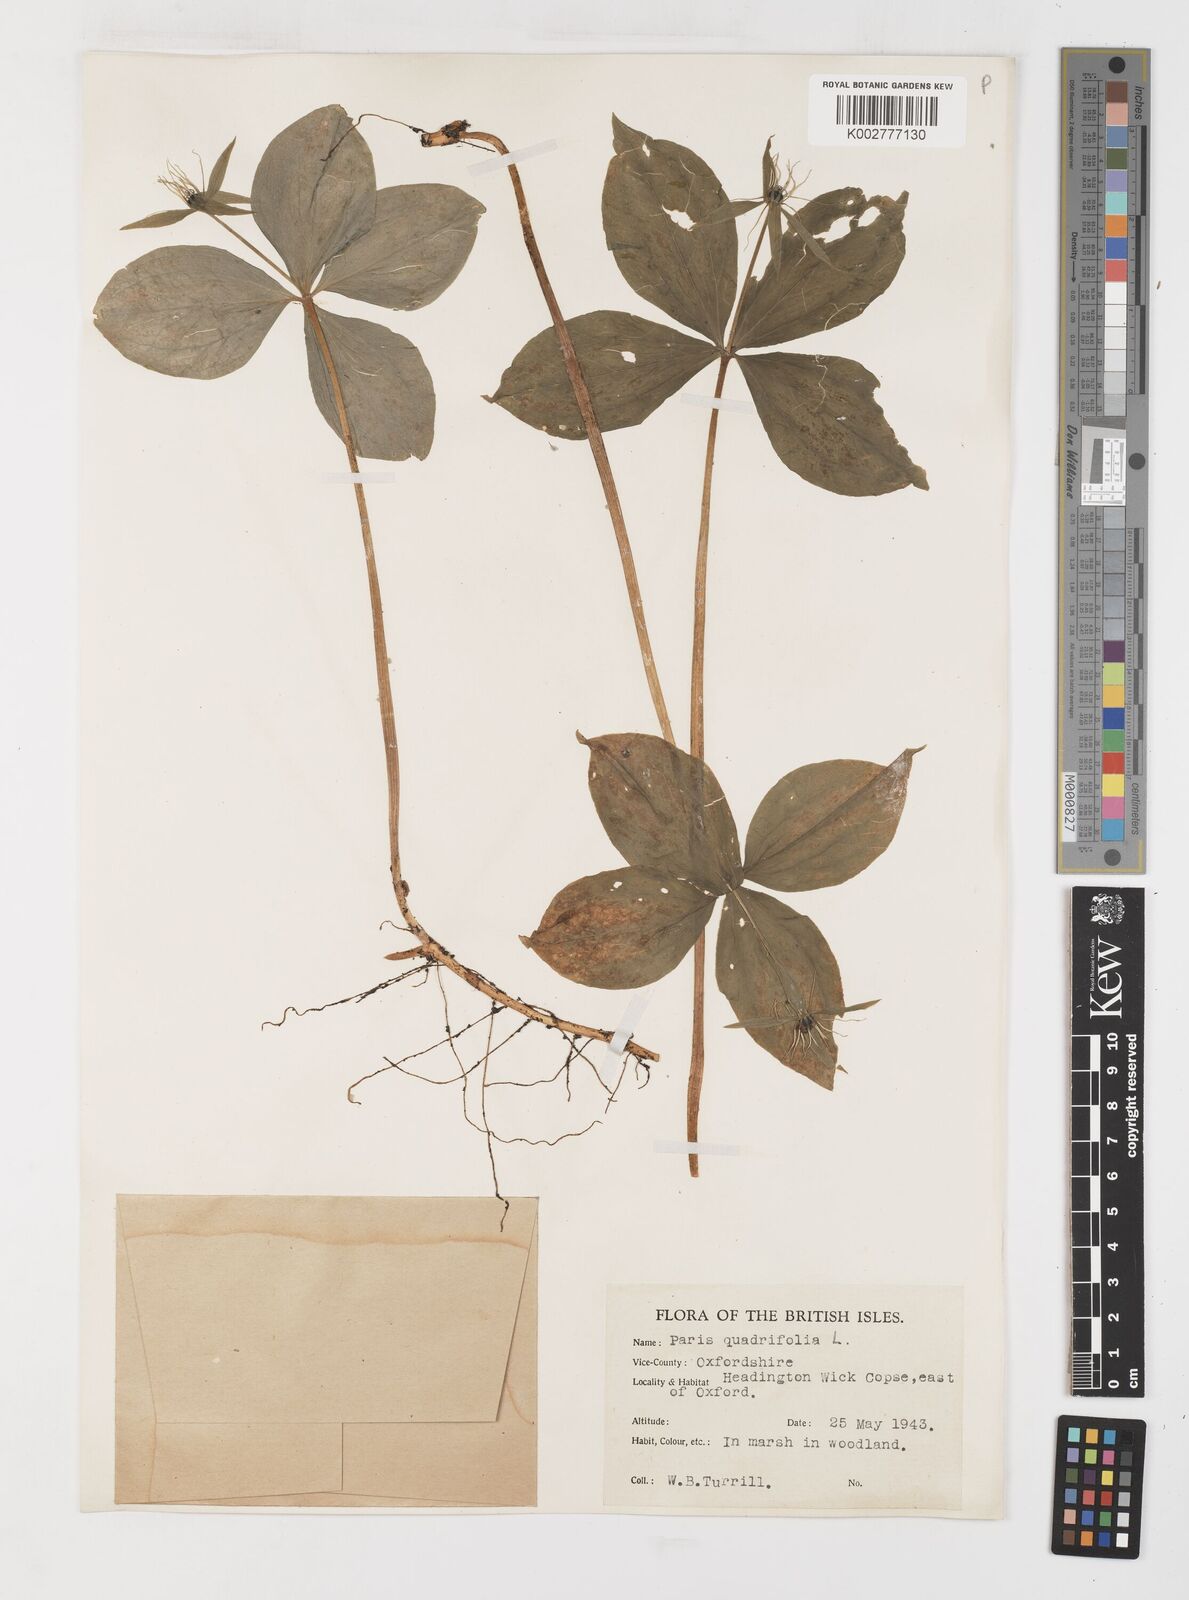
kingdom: Plantae
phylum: Tracheophyta
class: Liliopsida
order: Liliales
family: Melanthiaceae
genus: Paris
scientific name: Paris quadrifolia
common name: Herb-paris
